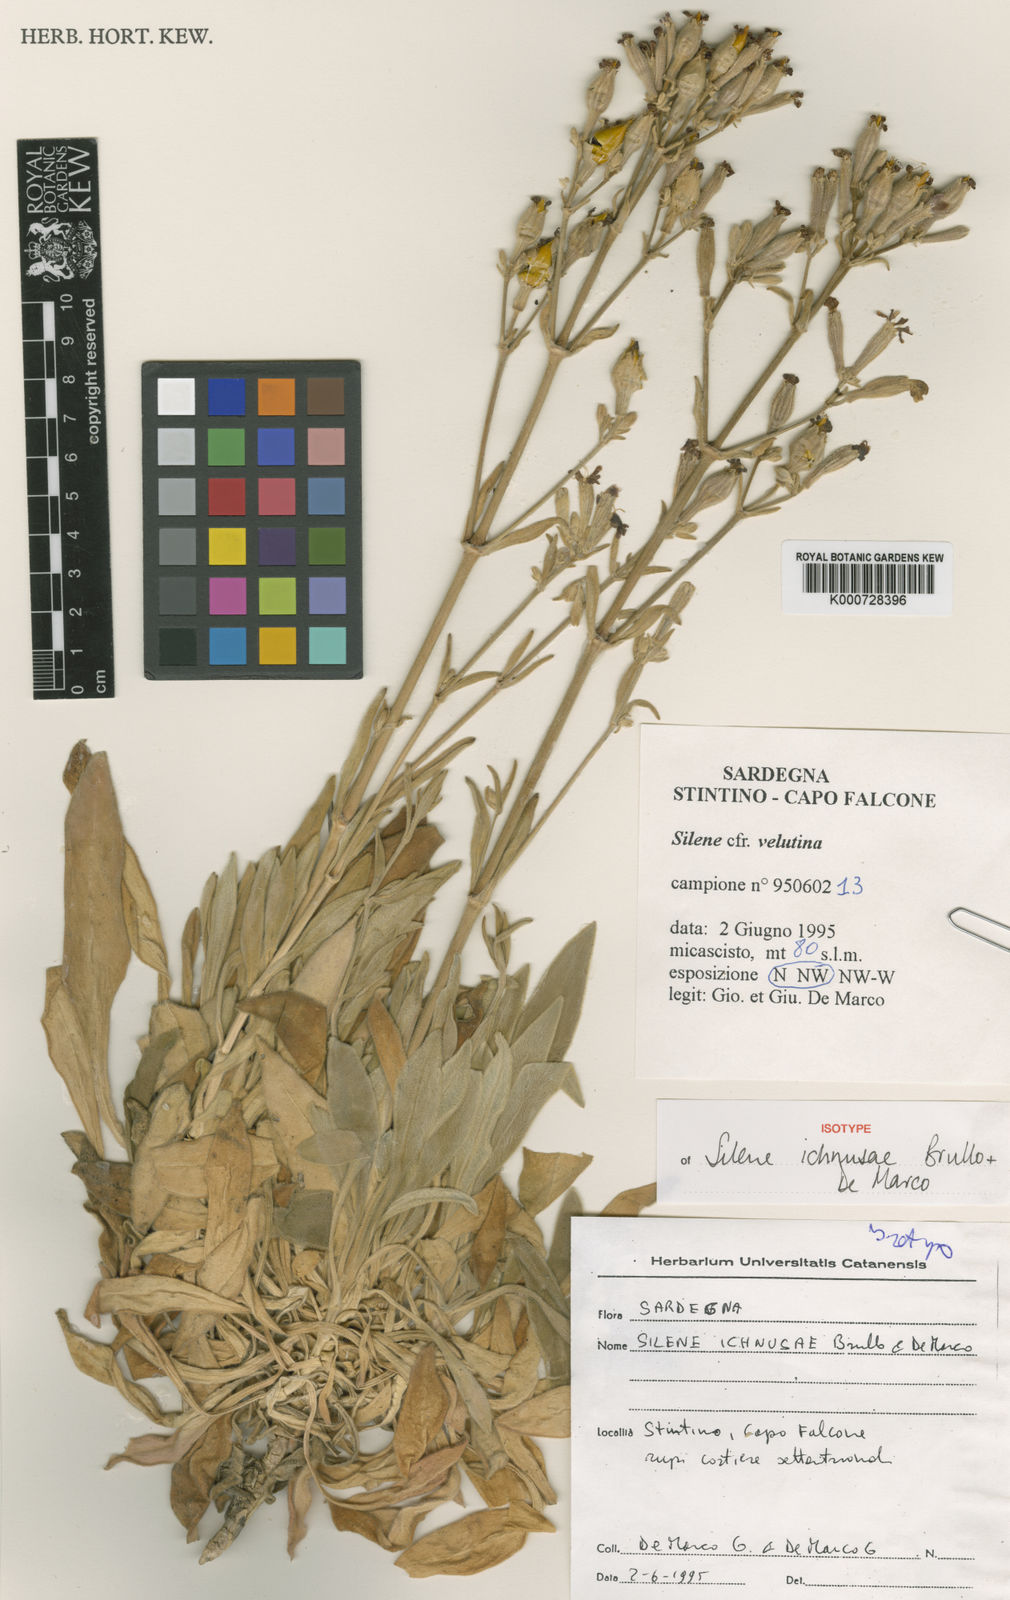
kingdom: Plantae
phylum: Tracheophyta
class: Magnoliopsida
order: Caryophyllales
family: Caryophyllaceae
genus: Silene
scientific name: Silene
